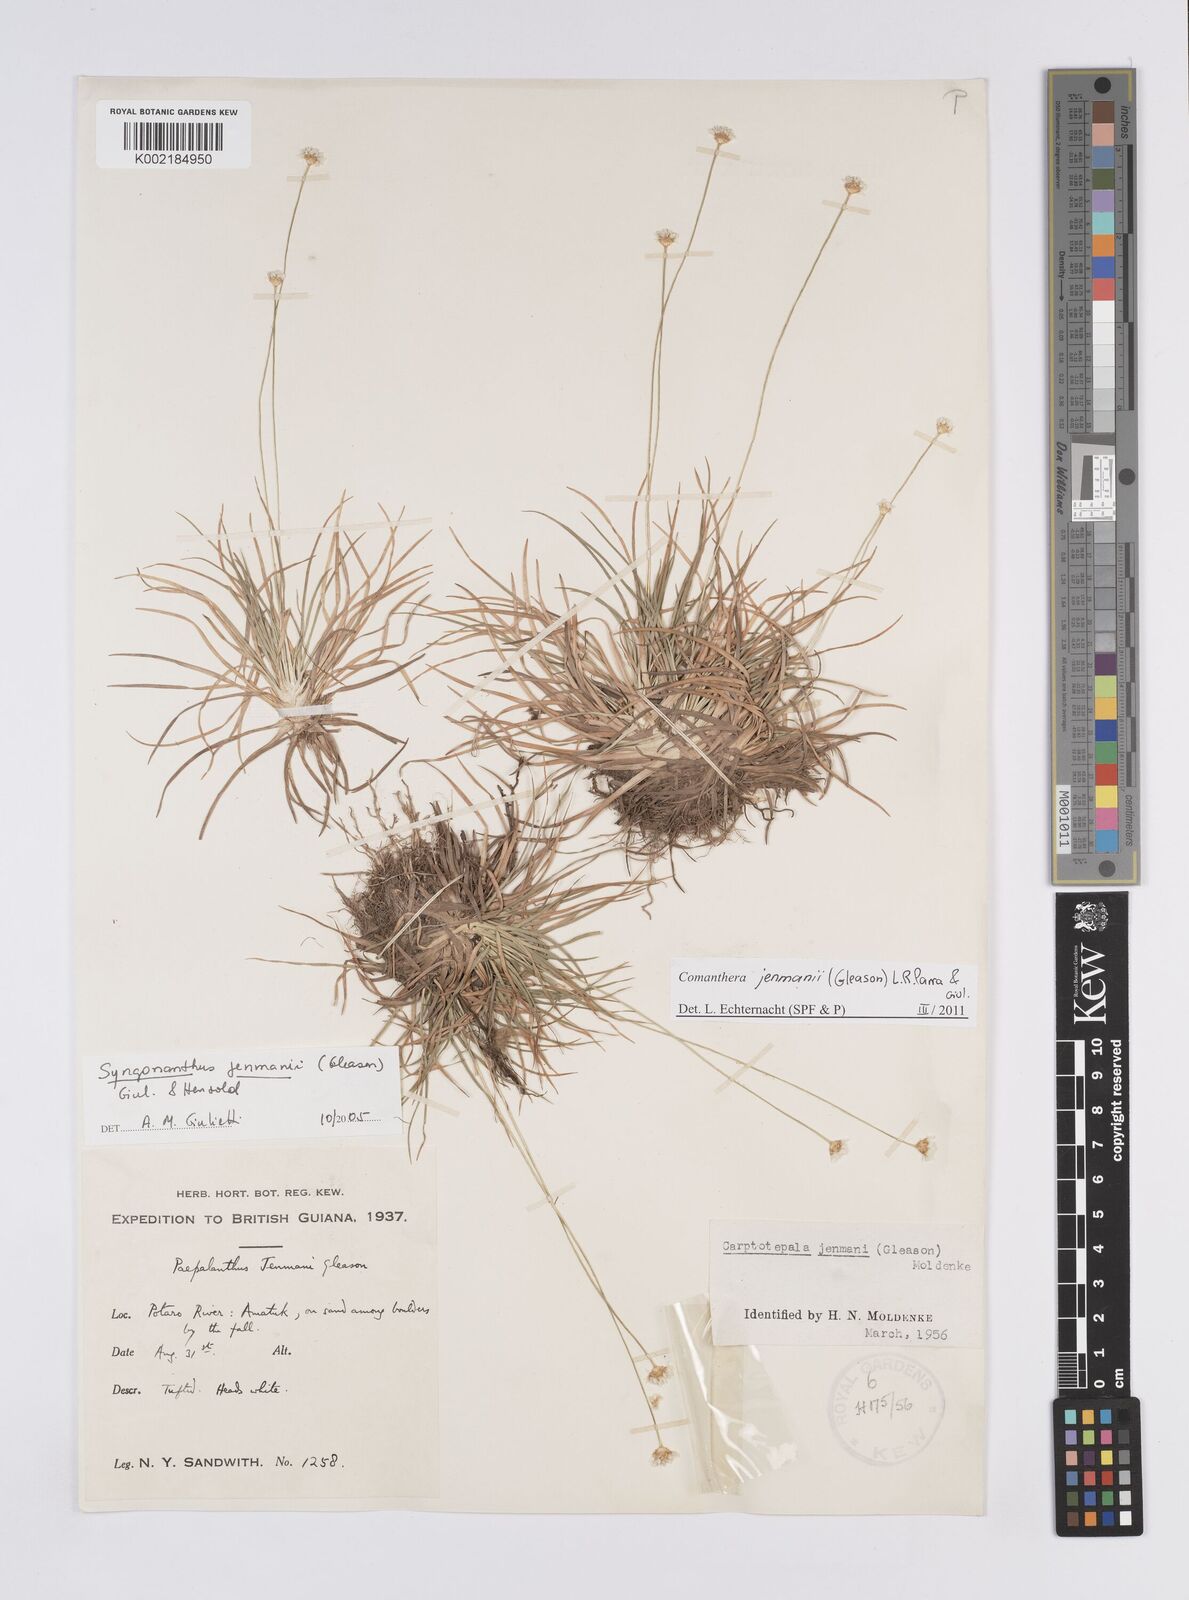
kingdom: Plantae
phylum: Tracheophyta
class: Liliopsida
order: Poales
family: Eriocaulaceae
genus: Comanthera
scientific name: Comanthera jenmanii
